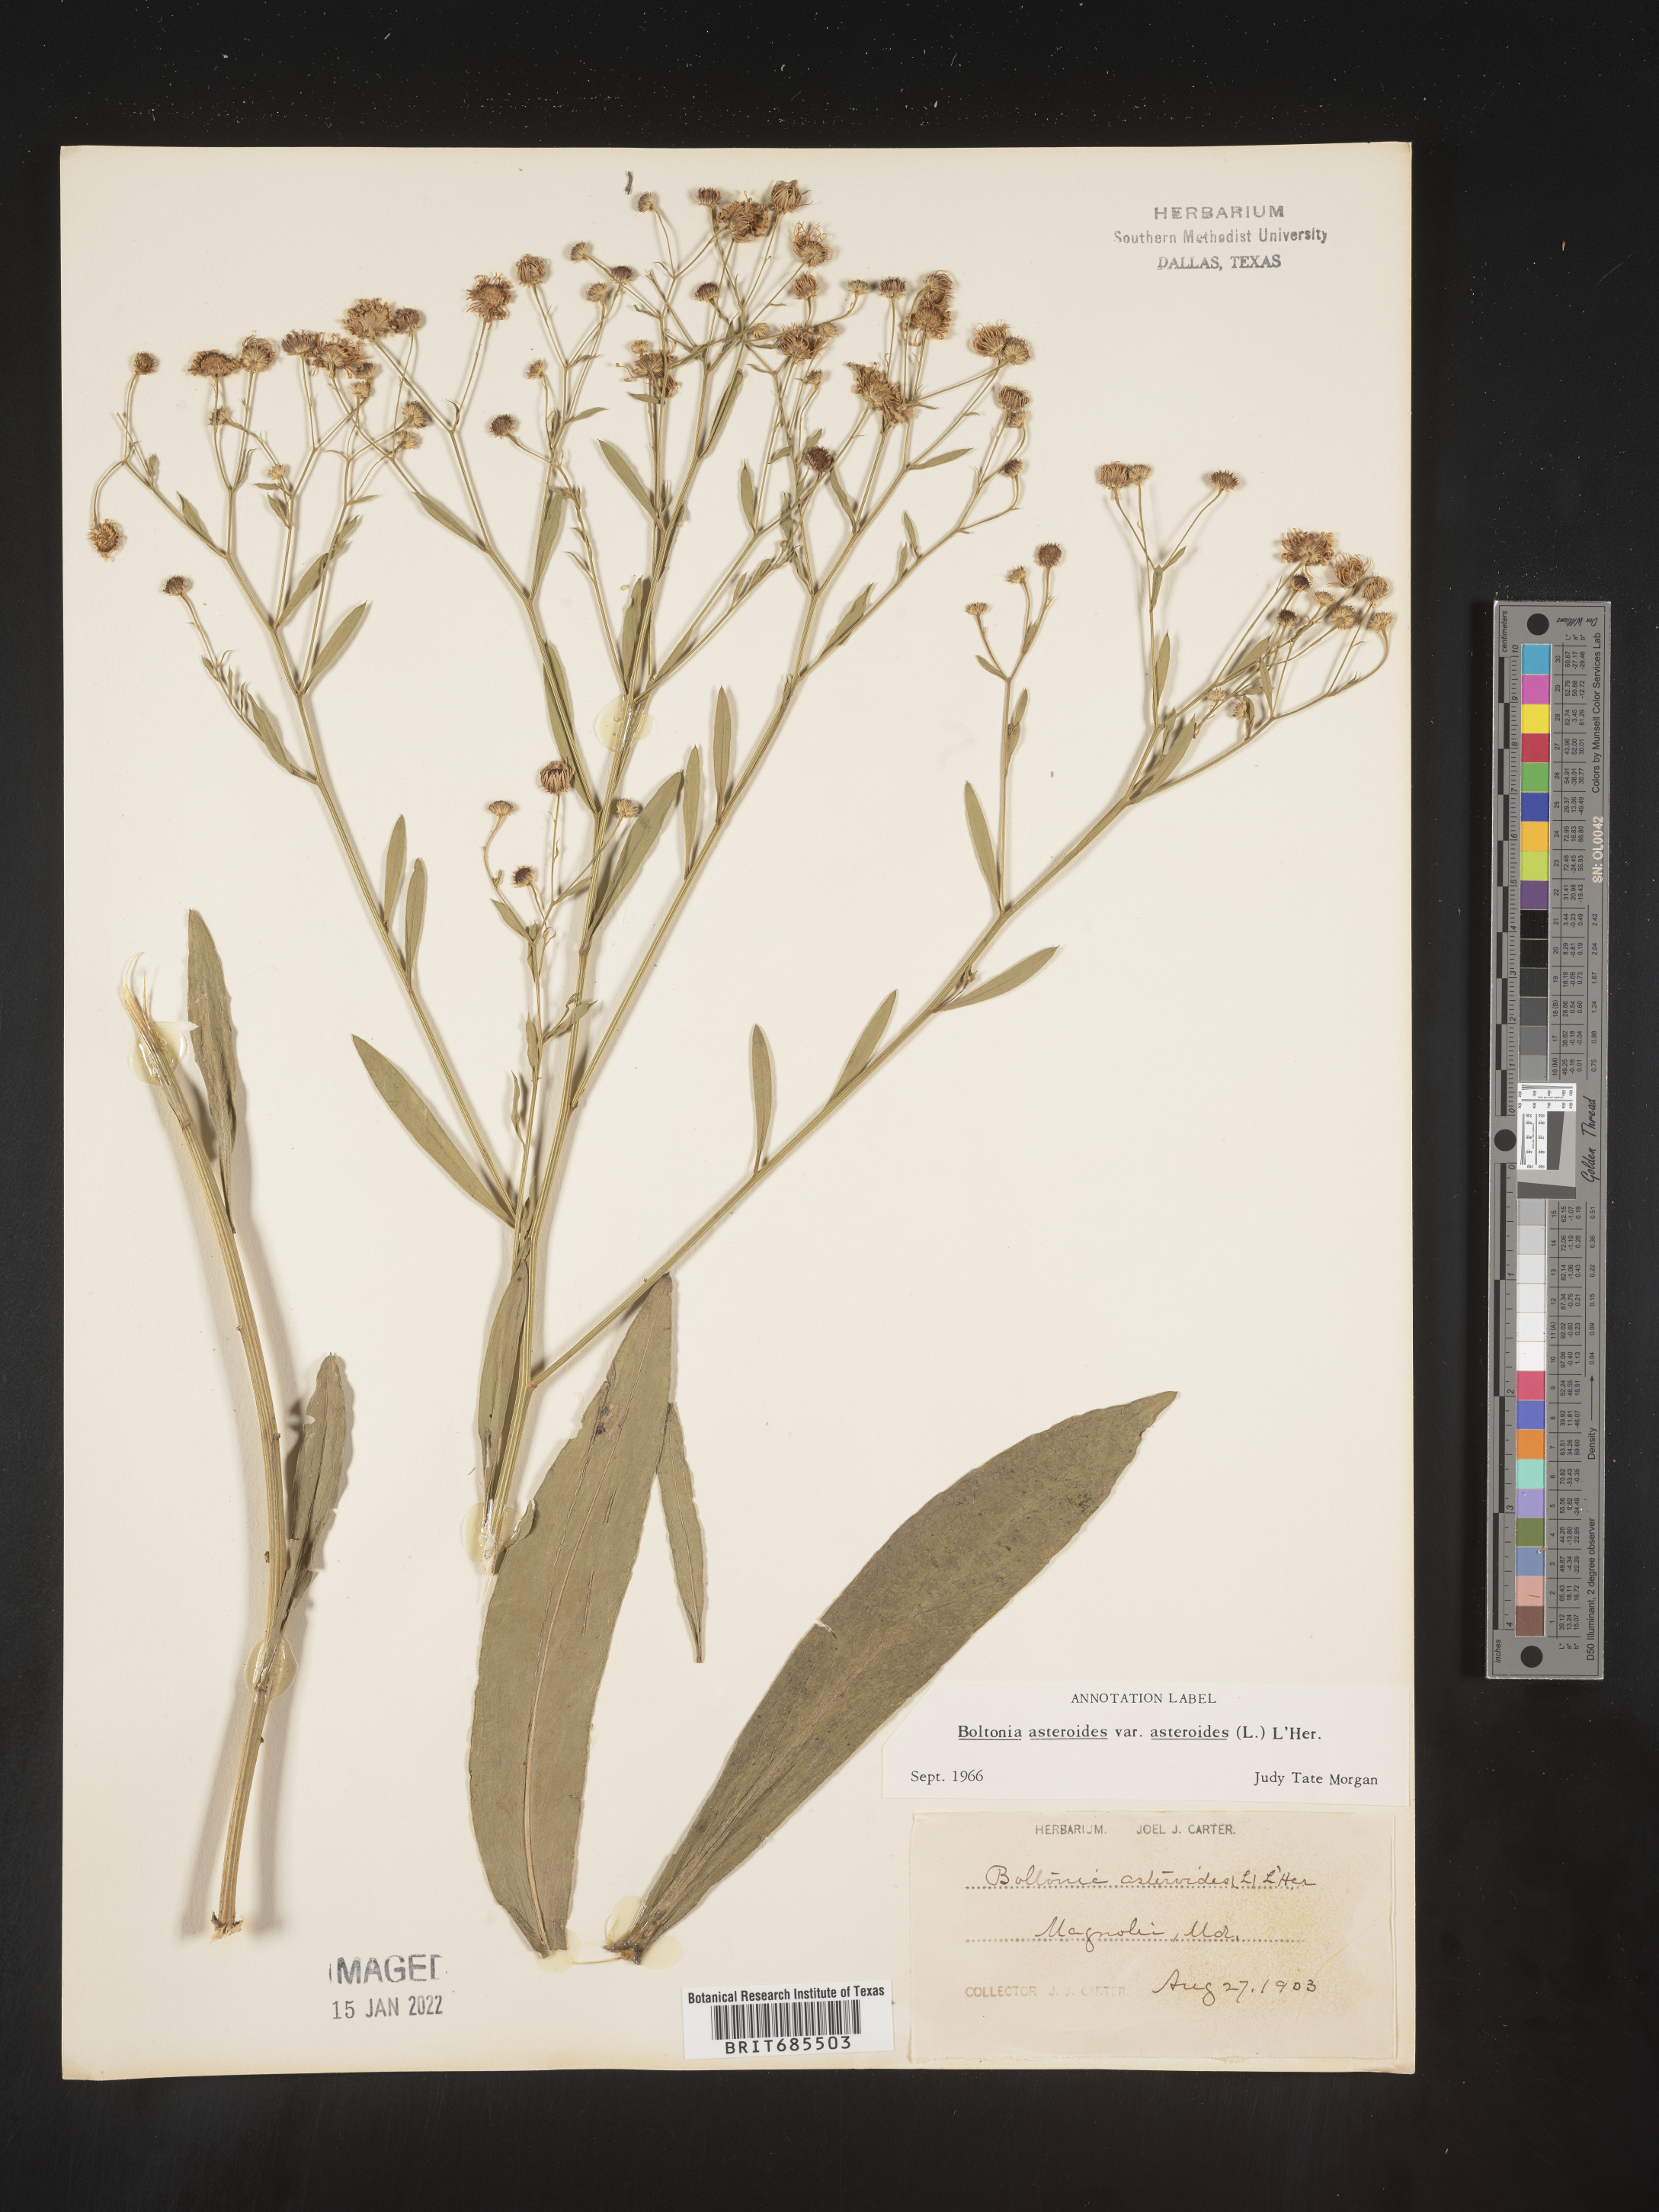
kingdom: Plantae
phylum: Tracheophyta
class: Magnoliopsida
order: Asterales
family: Asteraceae
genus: Boltonia
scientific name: Boltonia asteroides
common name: False chamomile
